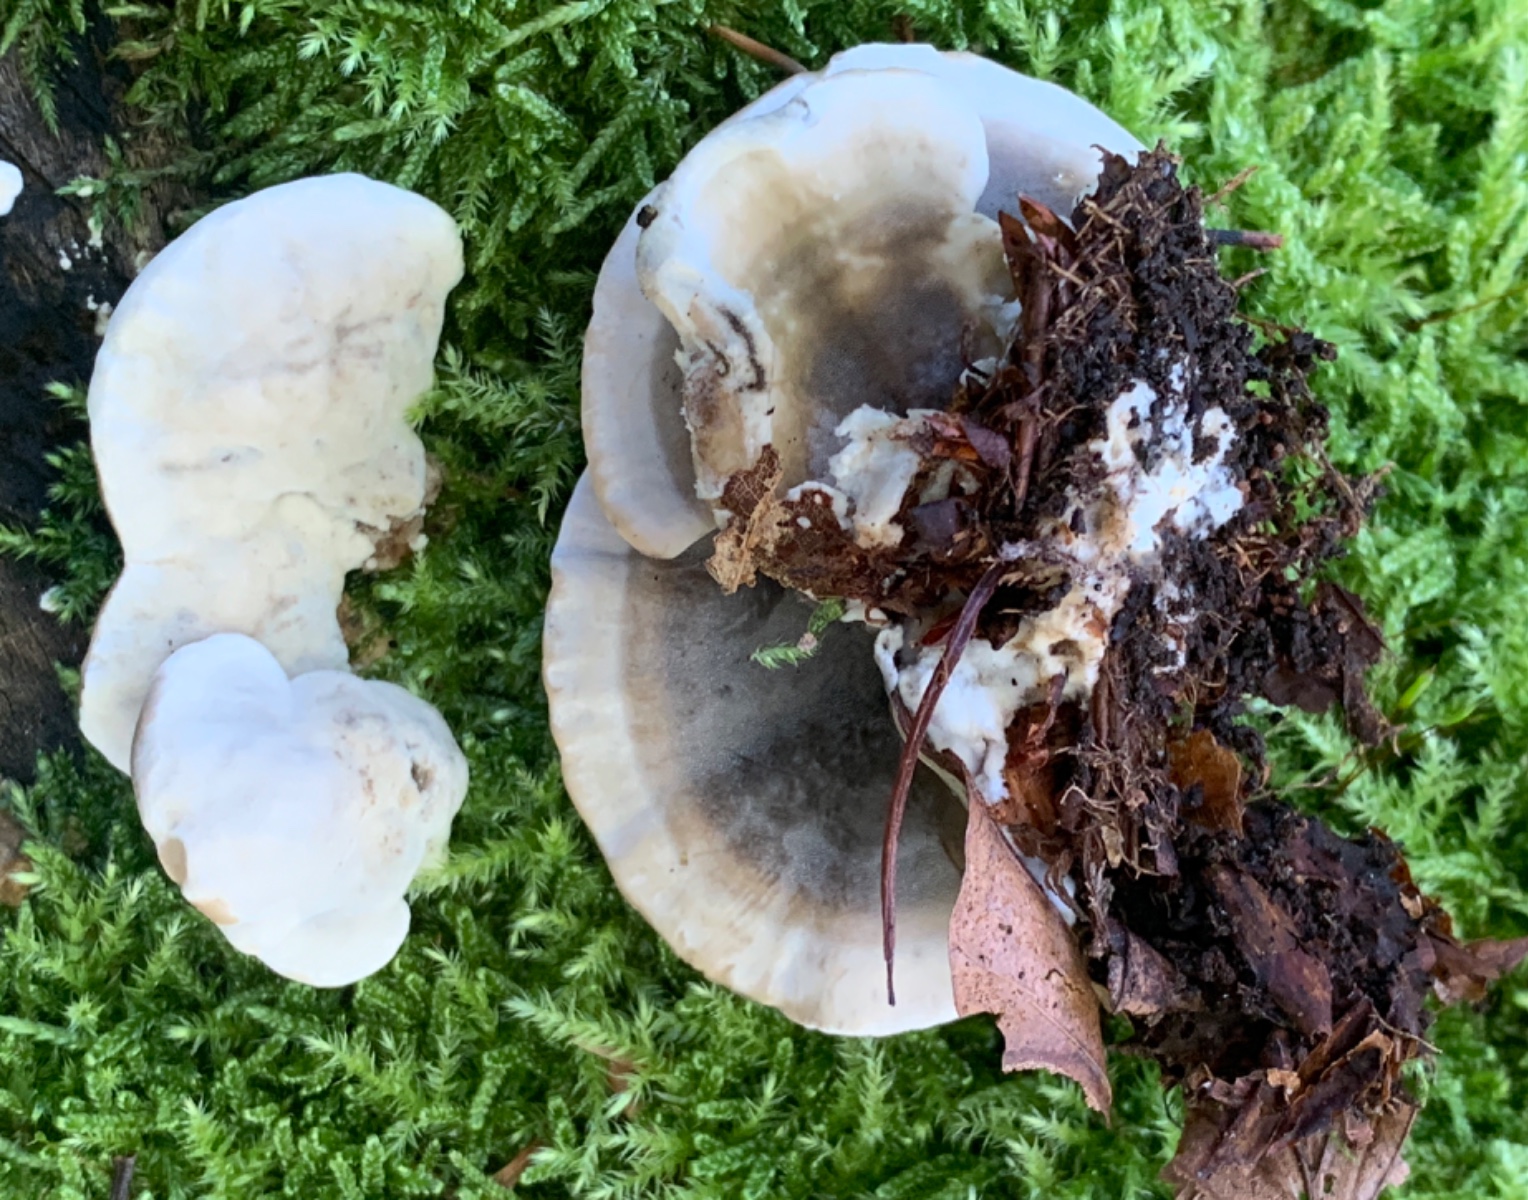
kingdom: Fungi
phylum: Basidiomycota
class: Agaricomycetes
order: Polyporales
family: Phanerochaetaceae
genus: Bjerkandera
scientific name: Bjerkandera adusta
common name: sveden sodporesvamp
